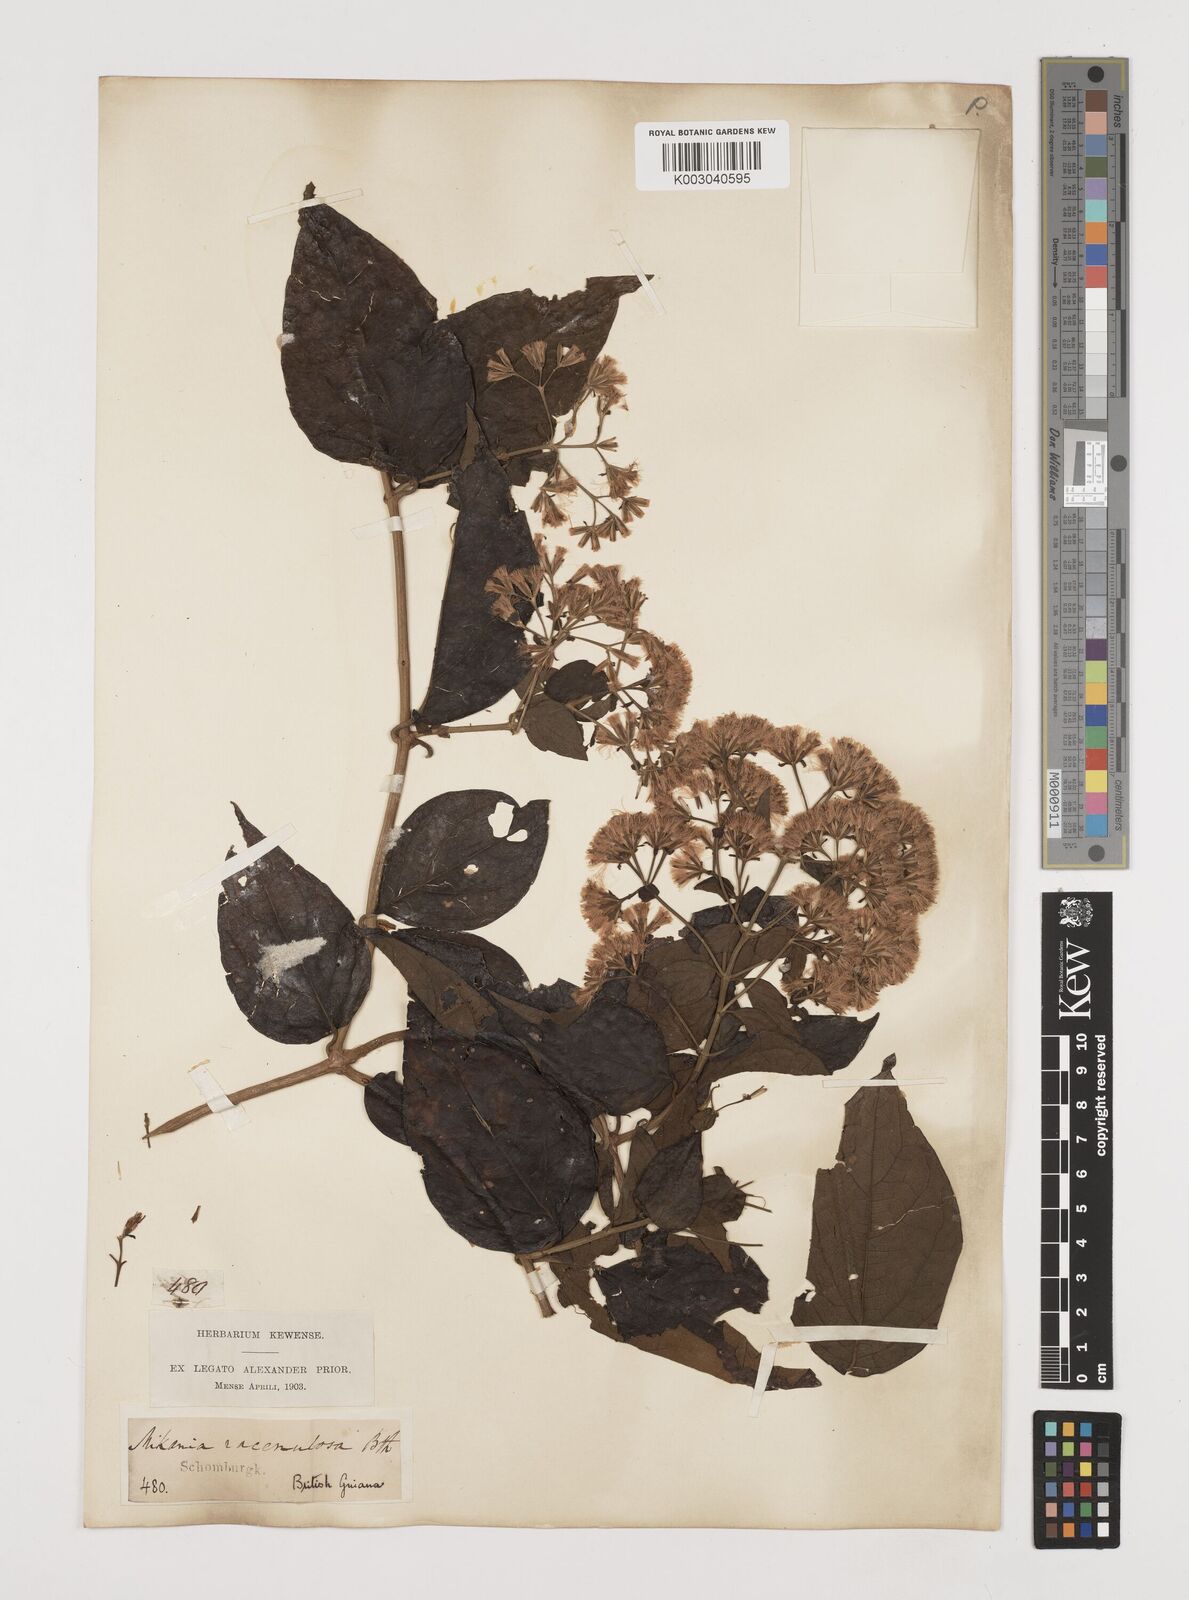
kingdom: Plantae
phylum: Tracheophyta
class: Magnoliopsida
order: Asterales
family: Asteraceae
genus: Mikania
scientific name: Mikania trinitaria
